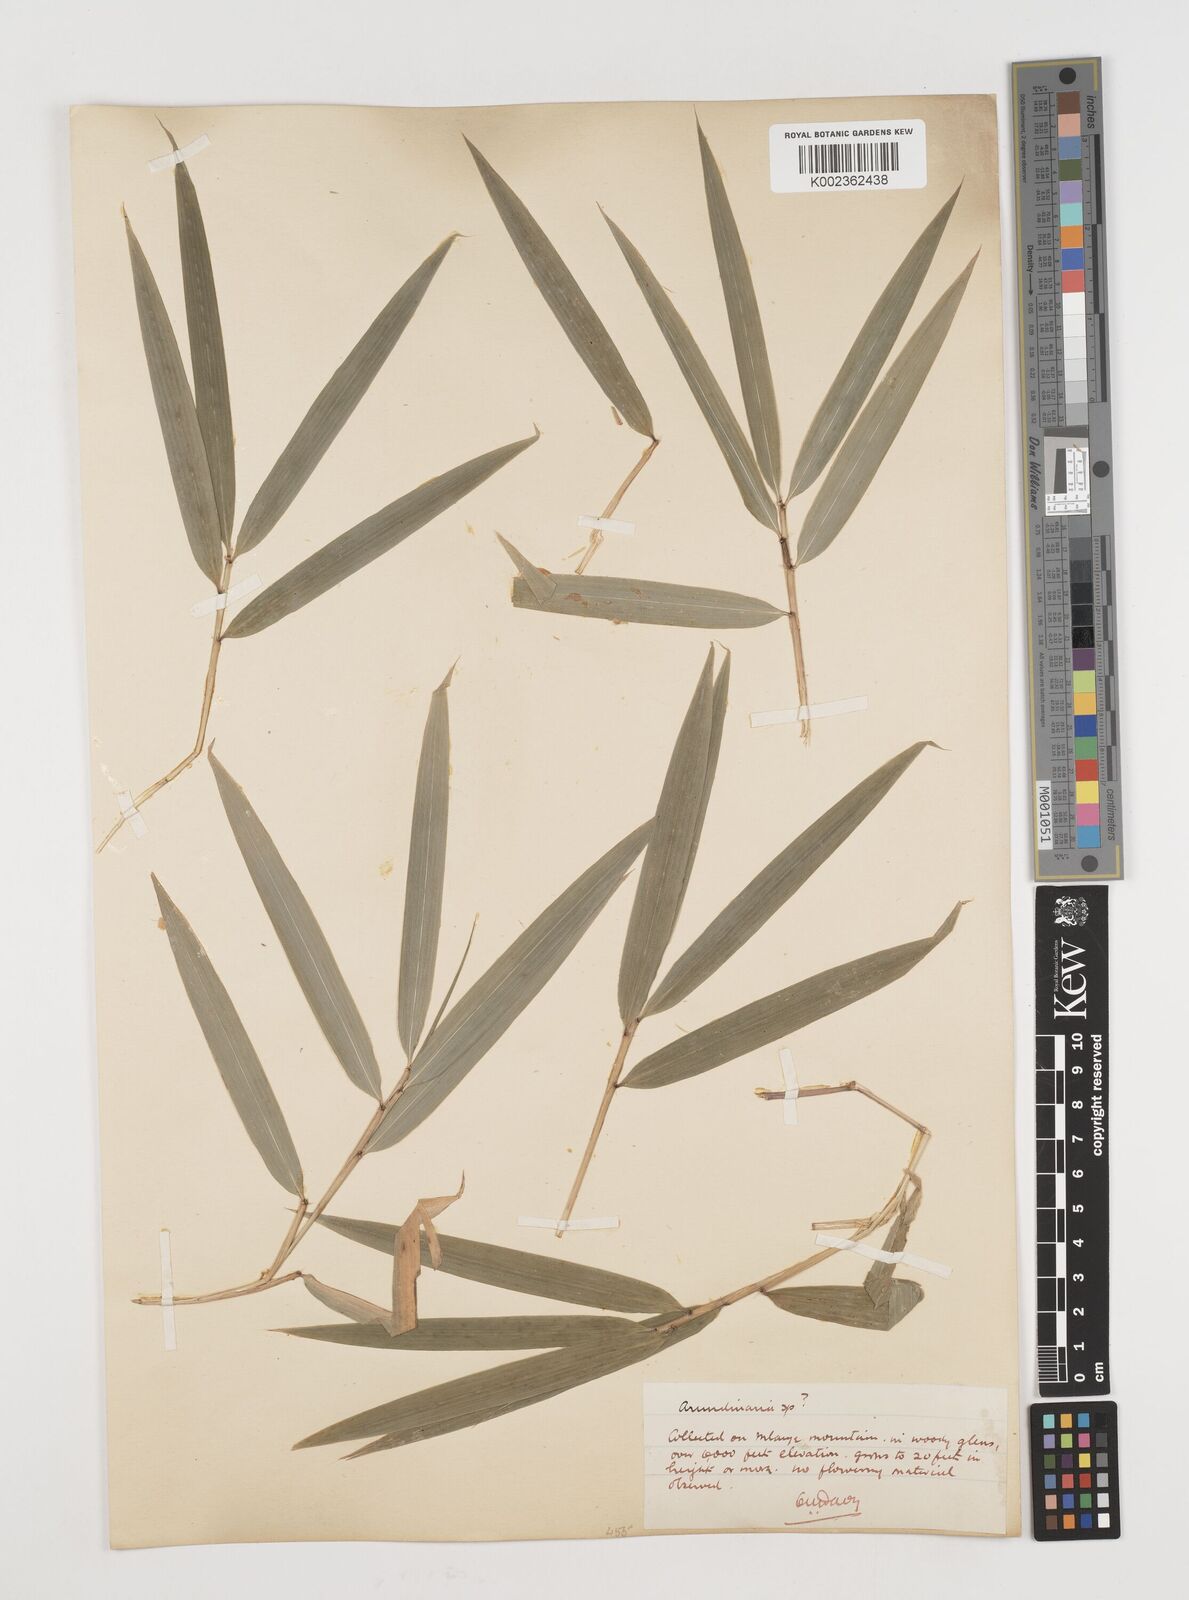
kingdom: Plantae
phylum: Tracheophyta
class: Liliopsida
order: Poales
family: Poaceae
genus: Oldeania
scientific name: Oldeania alpina
